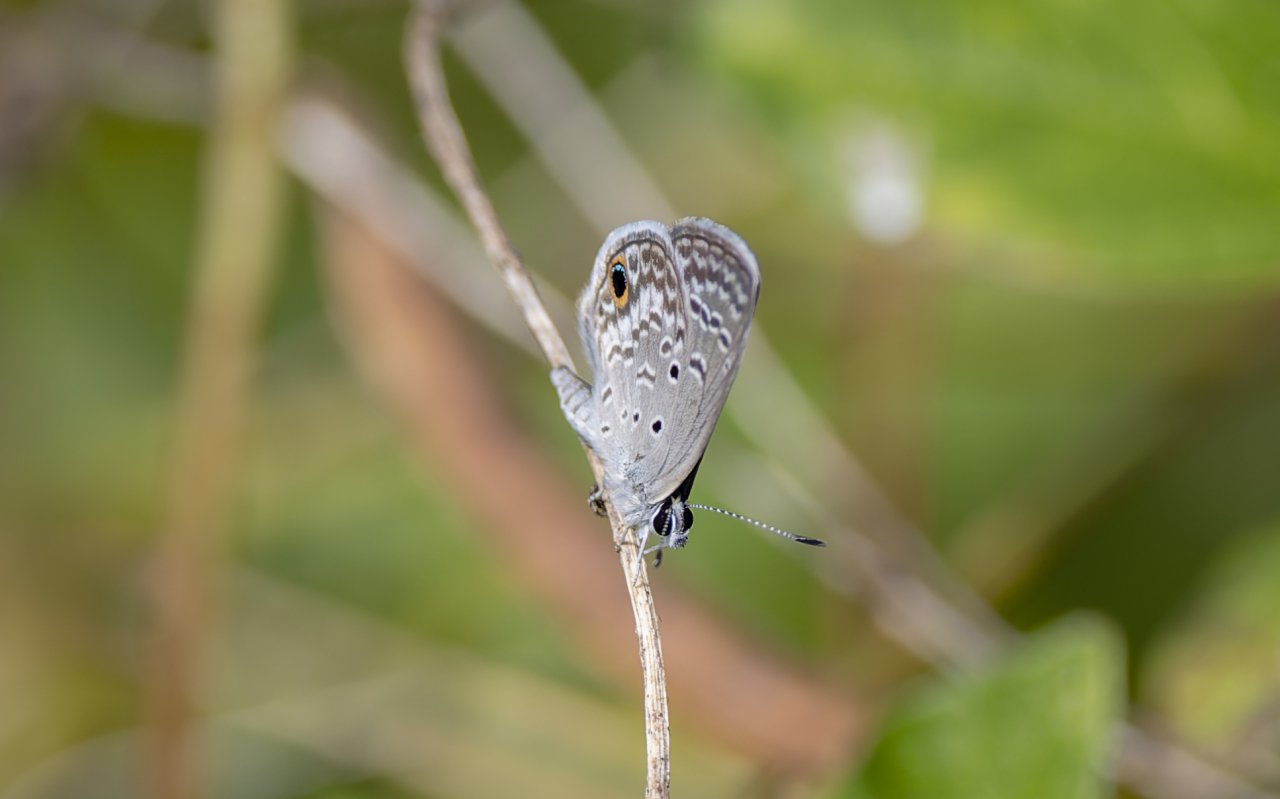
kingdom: Animalia
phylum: Arthropoda
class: Insecta
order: Lepidoptera
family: Lycaenidae
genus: Hemiargus
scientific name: Hemiargus ceraunus
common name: Ceraunus Blue
